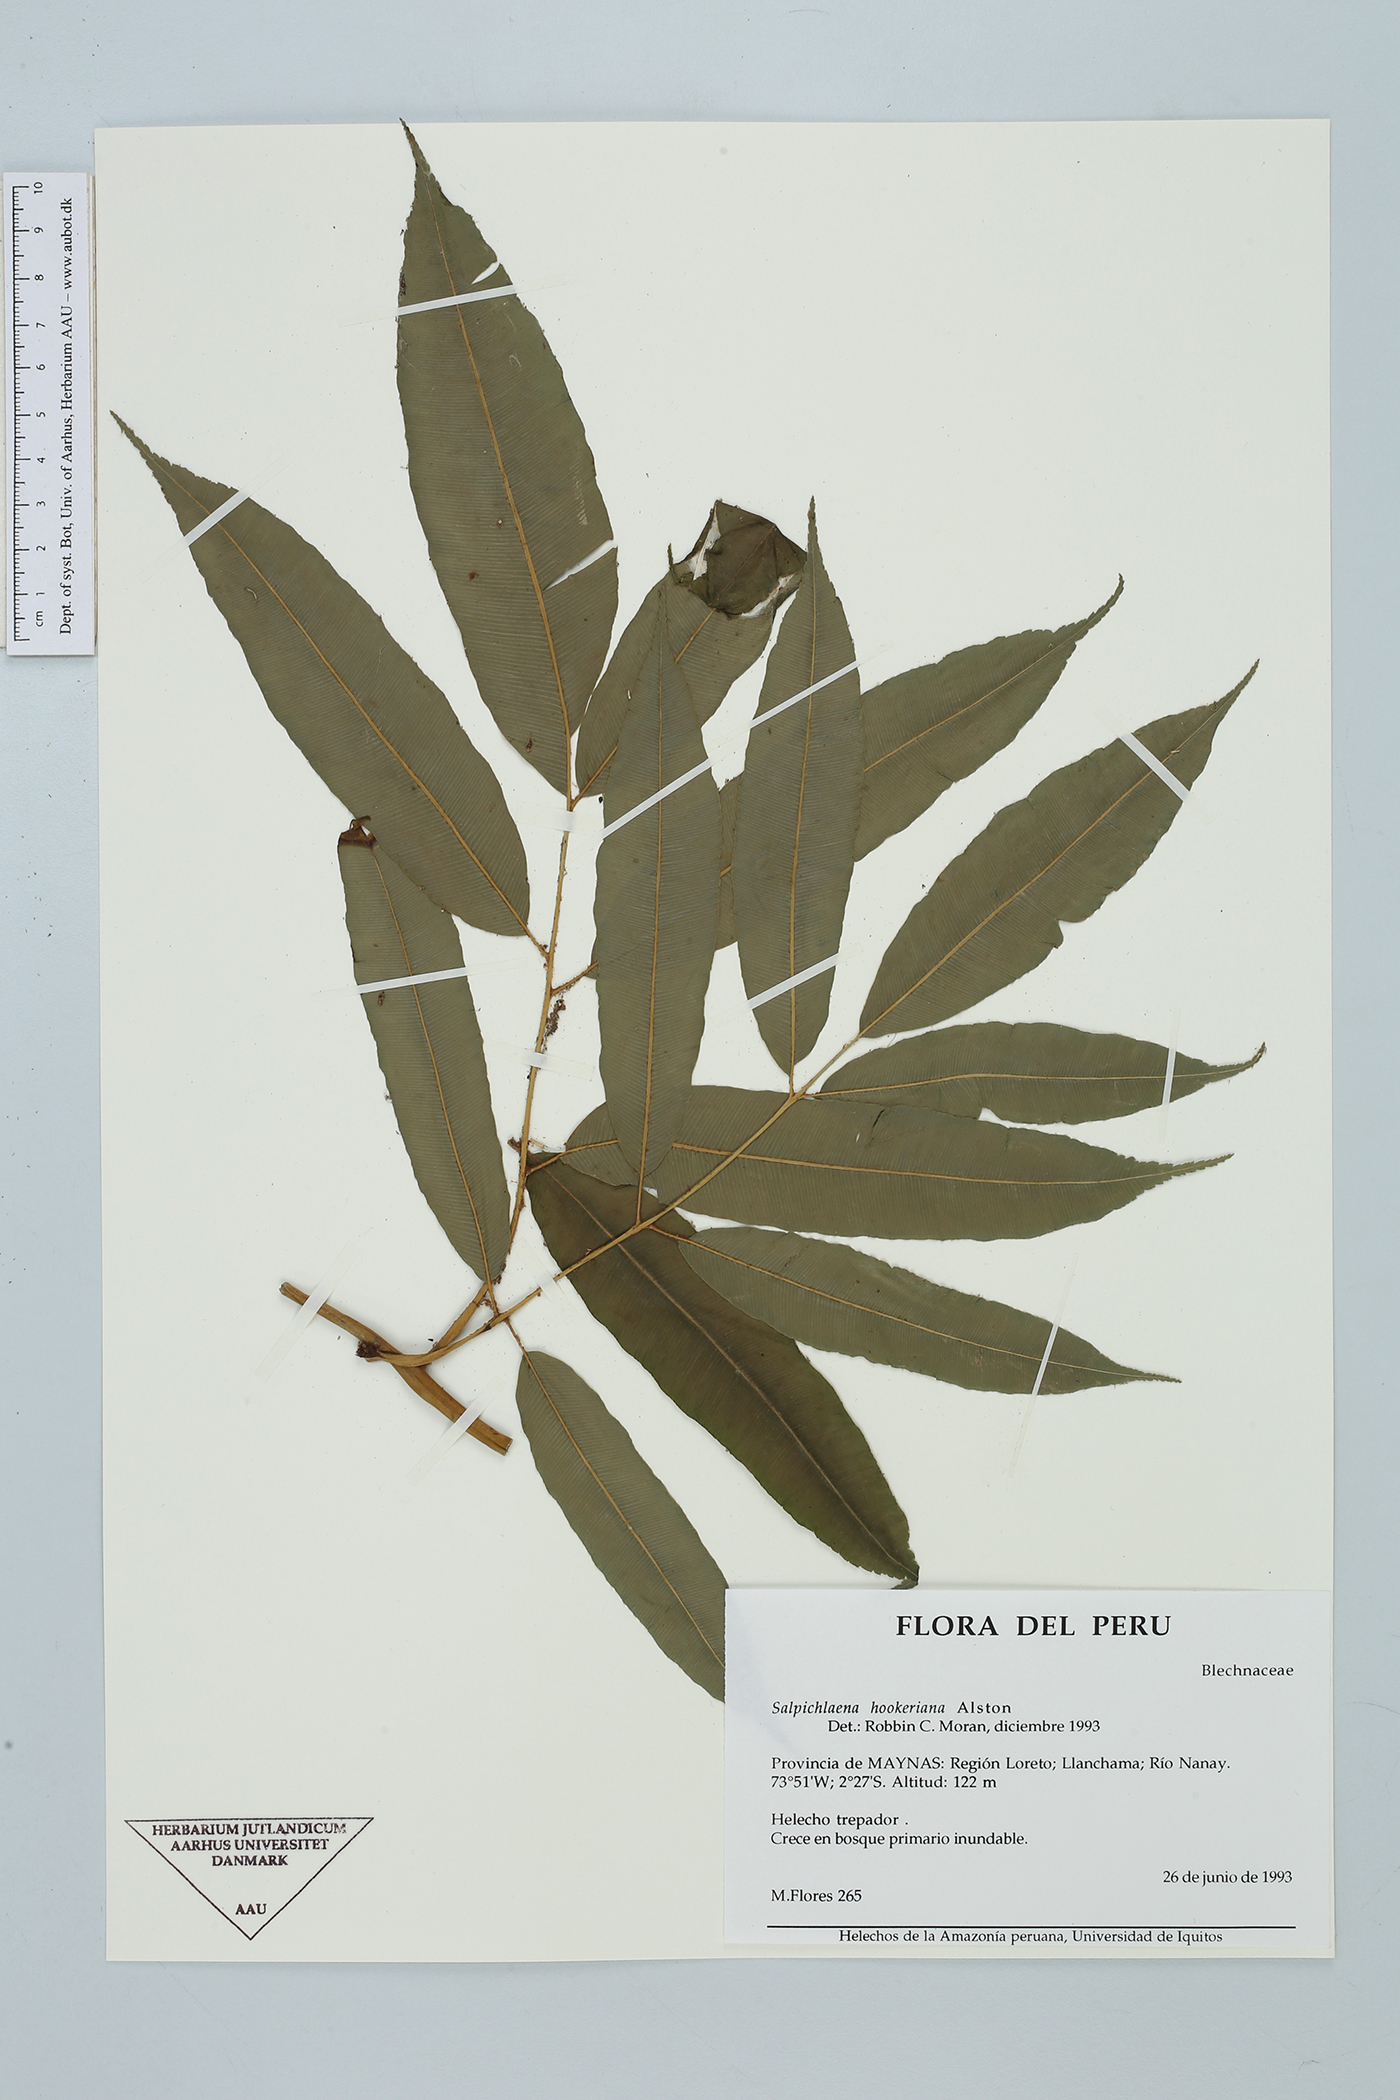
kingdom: Plantae
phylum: Tracheophyta
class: Polypodiopsida
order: Polypodiales
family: Blechnaceae
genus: Salpichlaena
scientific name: Salpichlaena hookeriana
